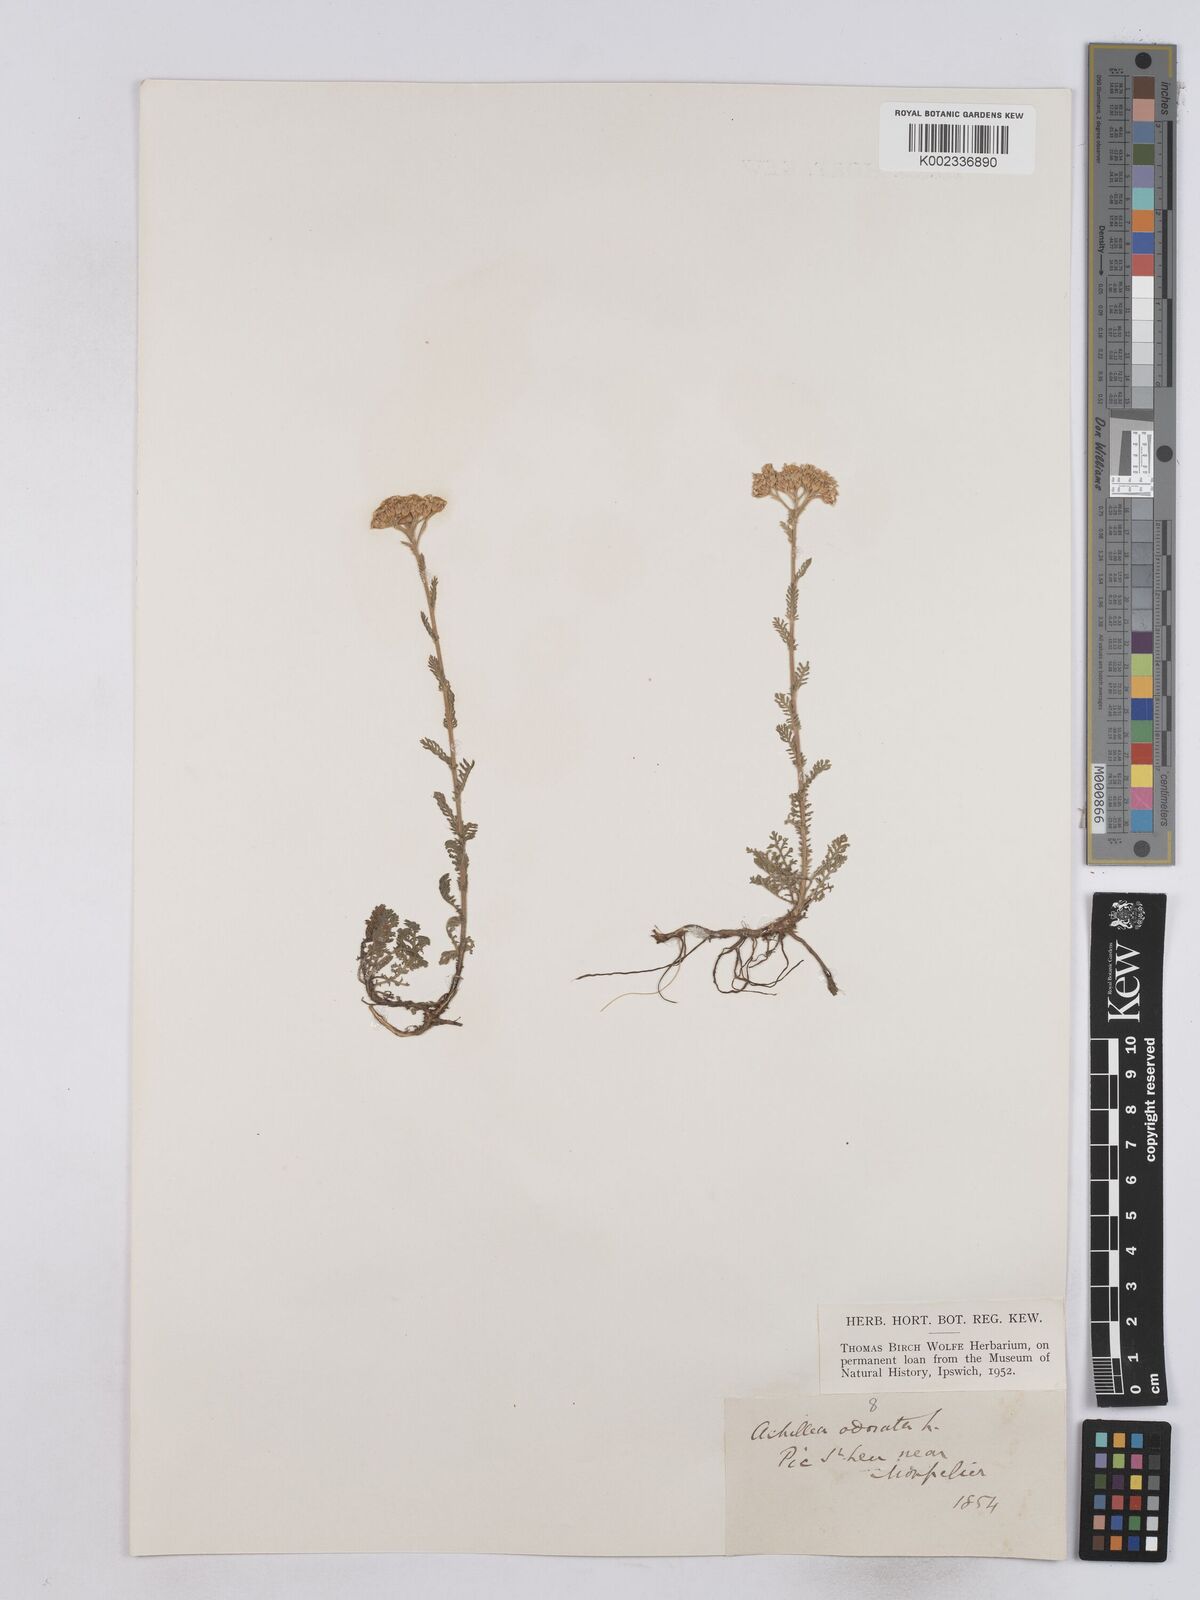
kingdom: Plantae
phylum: Tracheophyta
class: Magnoliopsida
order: Asterales
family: Asteraceae
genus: Achillea
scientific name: Achillea odorata
